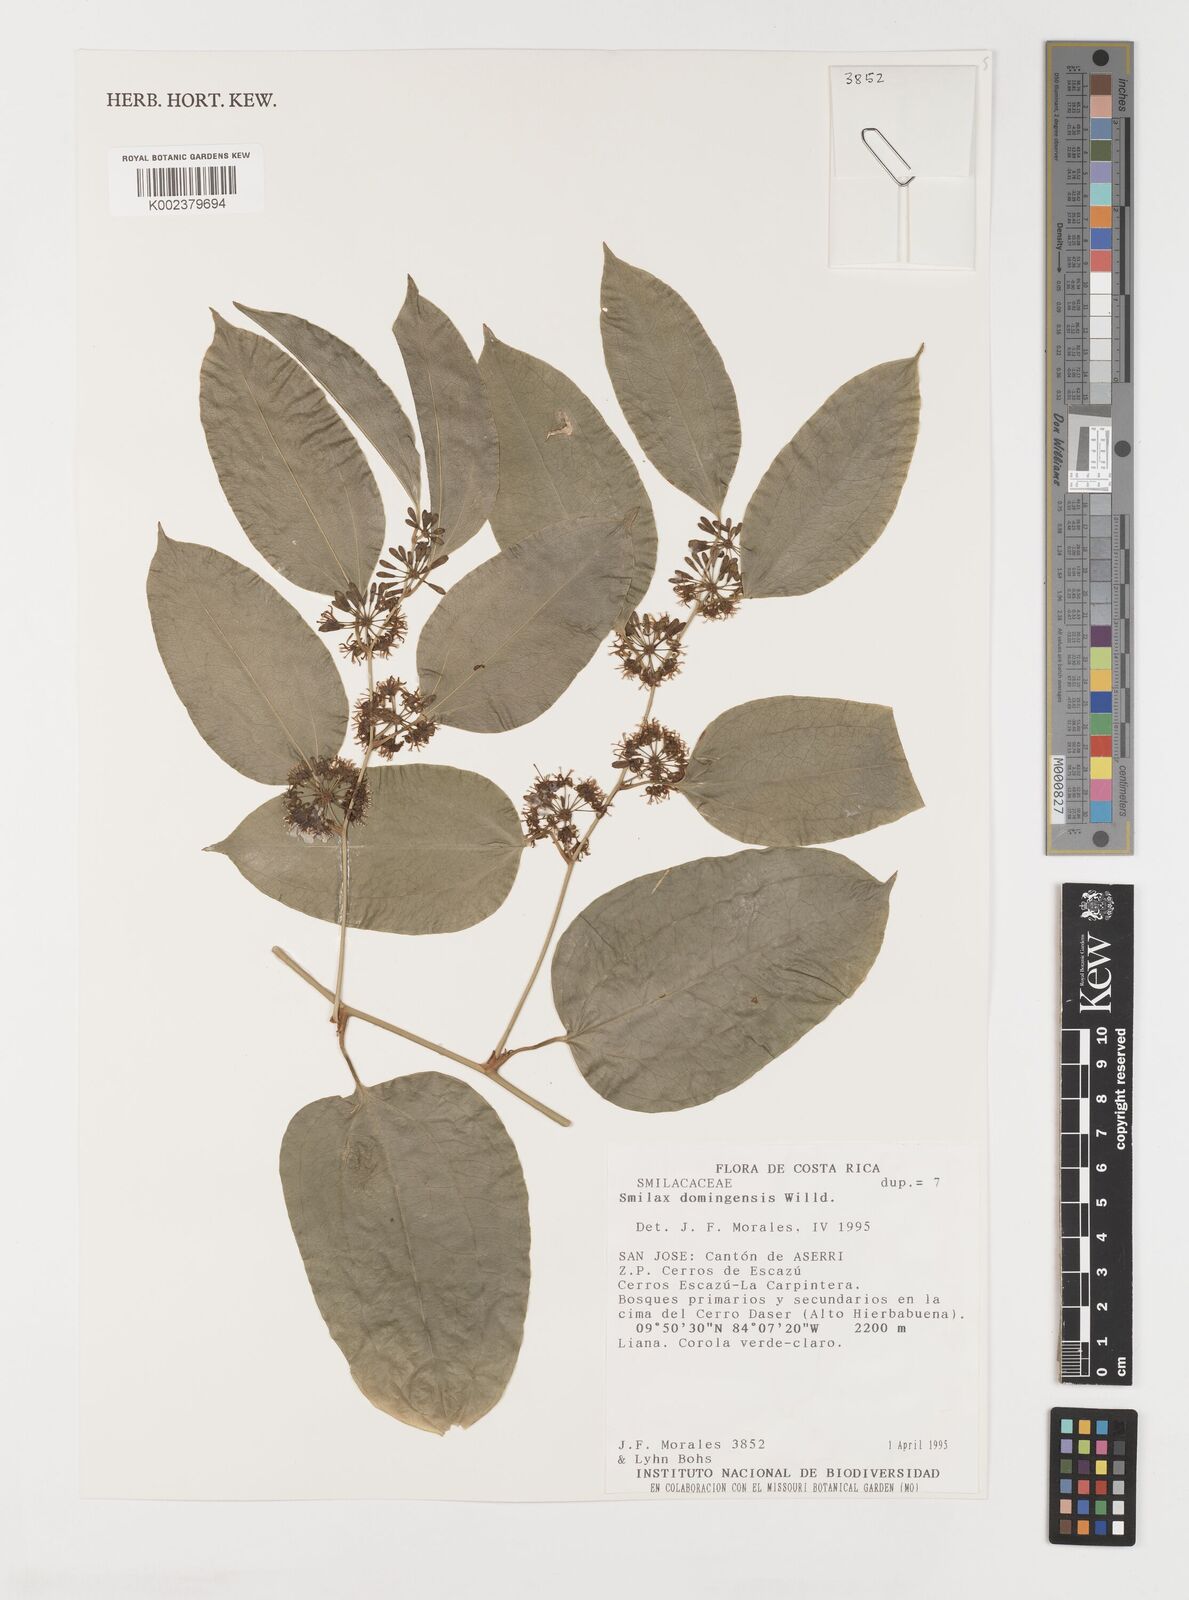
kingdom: Plantae
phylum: Tracheophyta
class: Liliopsida
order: Liliales
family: Smilacaceae
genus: Smilax
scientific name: Smilax domingensis
